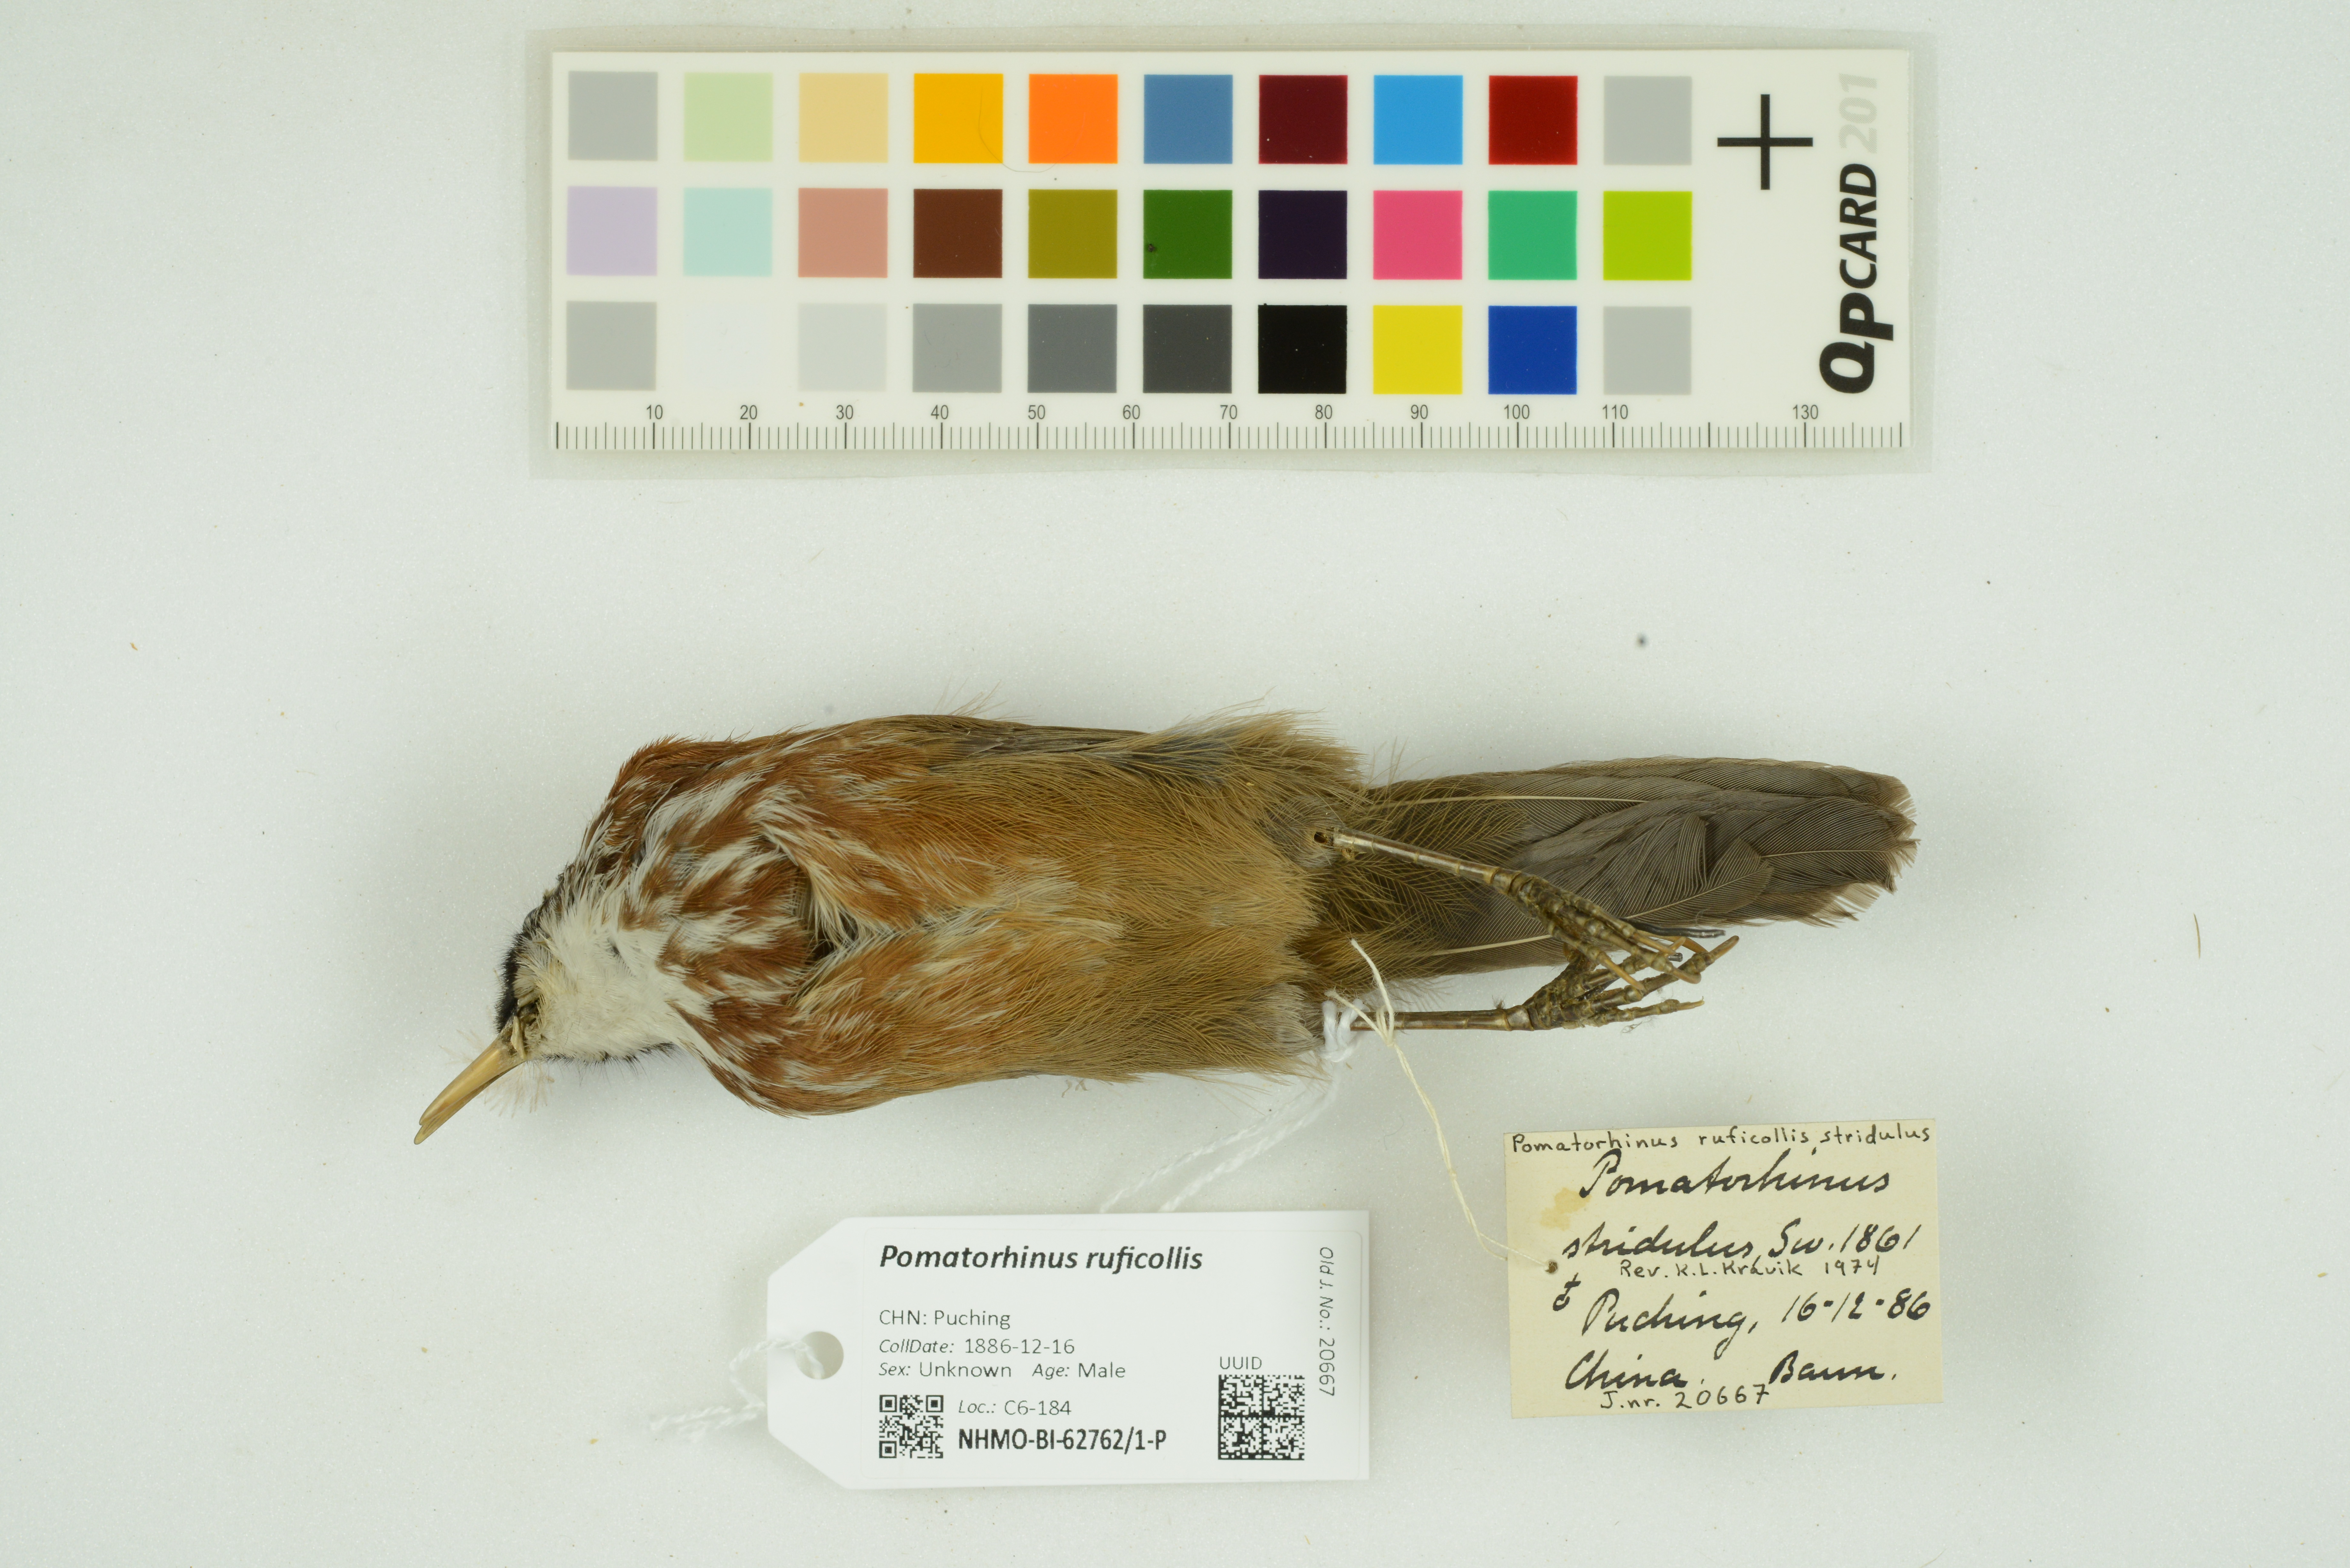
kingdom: Animalia
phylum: Chordata
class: Aves
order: Passeriformes
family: Timaliidae
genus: Pomatorhinus
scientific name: Pomatorhinus ruficollis
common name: Streak-breasted scimitar babbler
